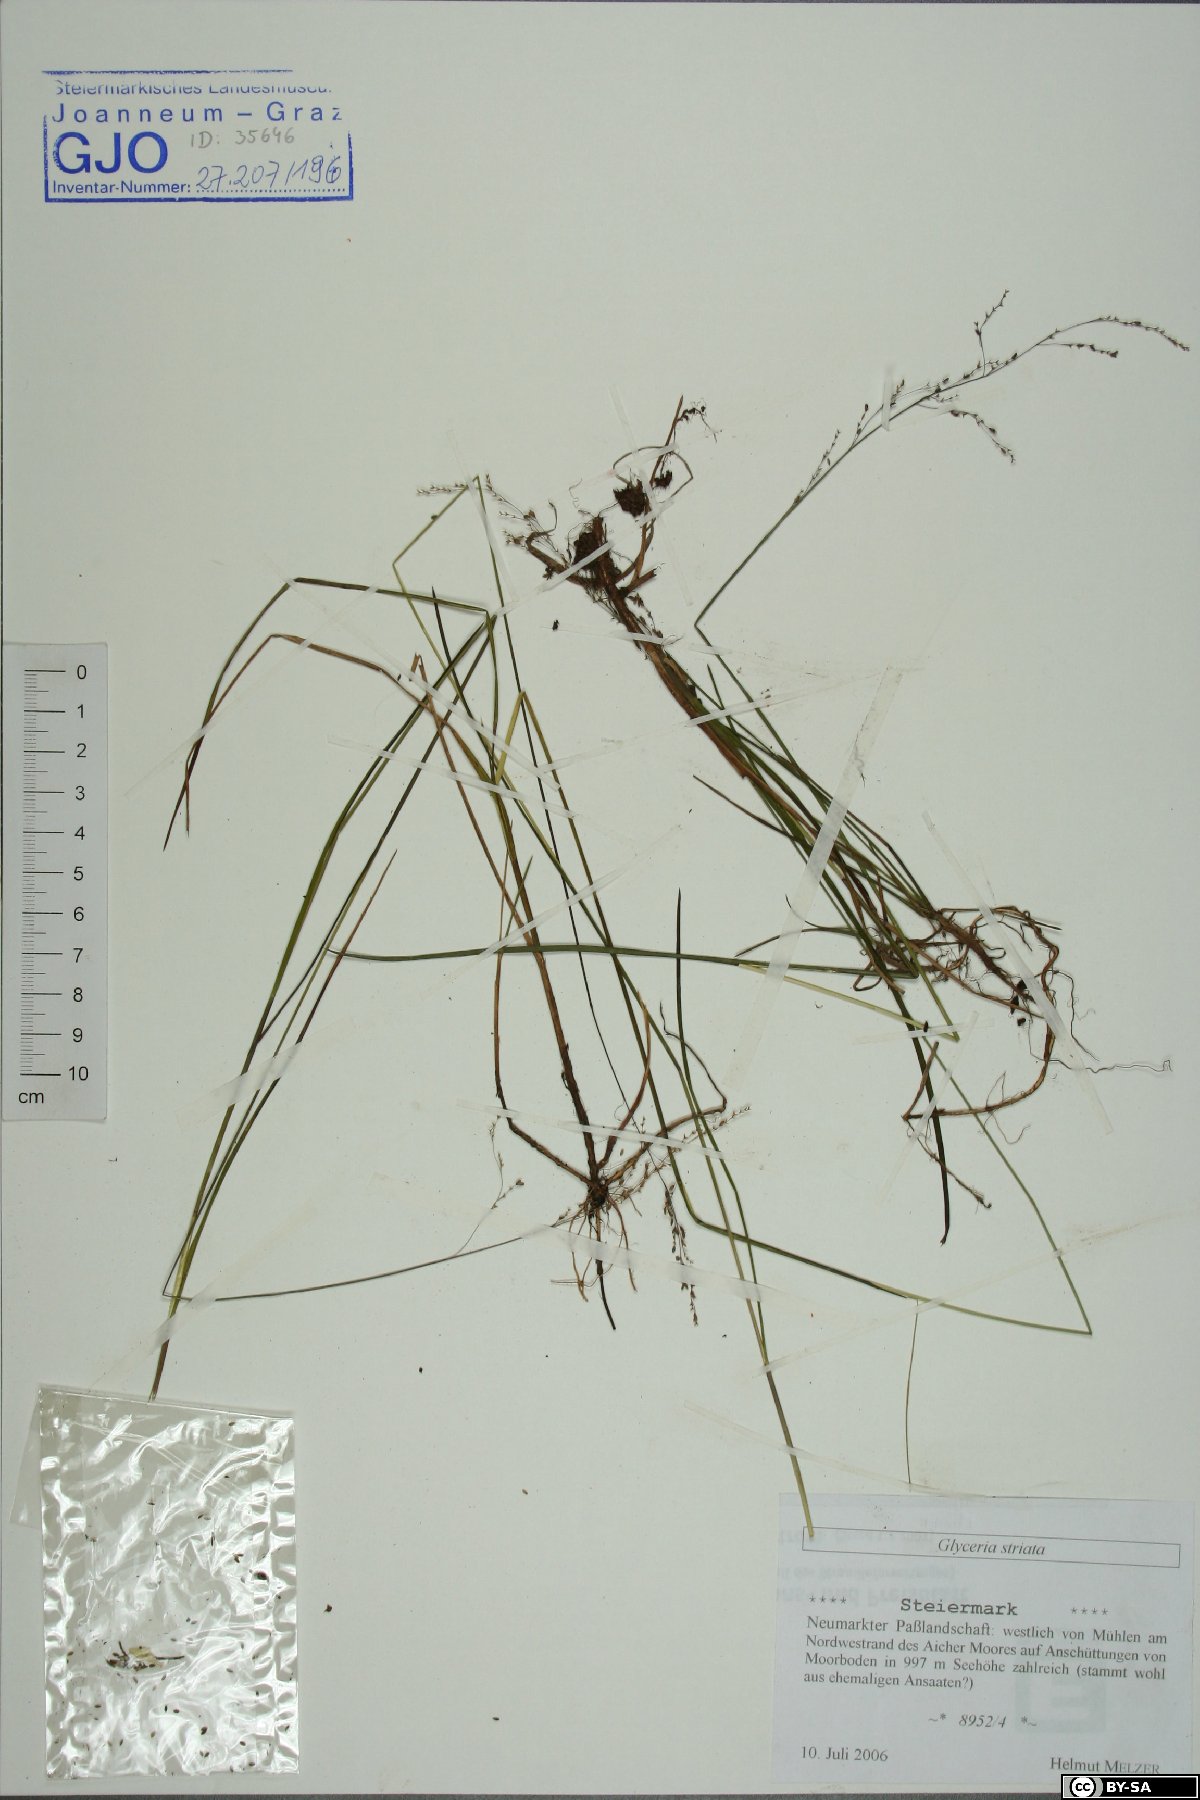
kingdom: Plantae
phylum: Tracheophyta
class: Liliopsida
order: Poales
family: Poaceae
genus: Glyceria
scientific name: Glyceria striata
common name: Fowl manna grass
